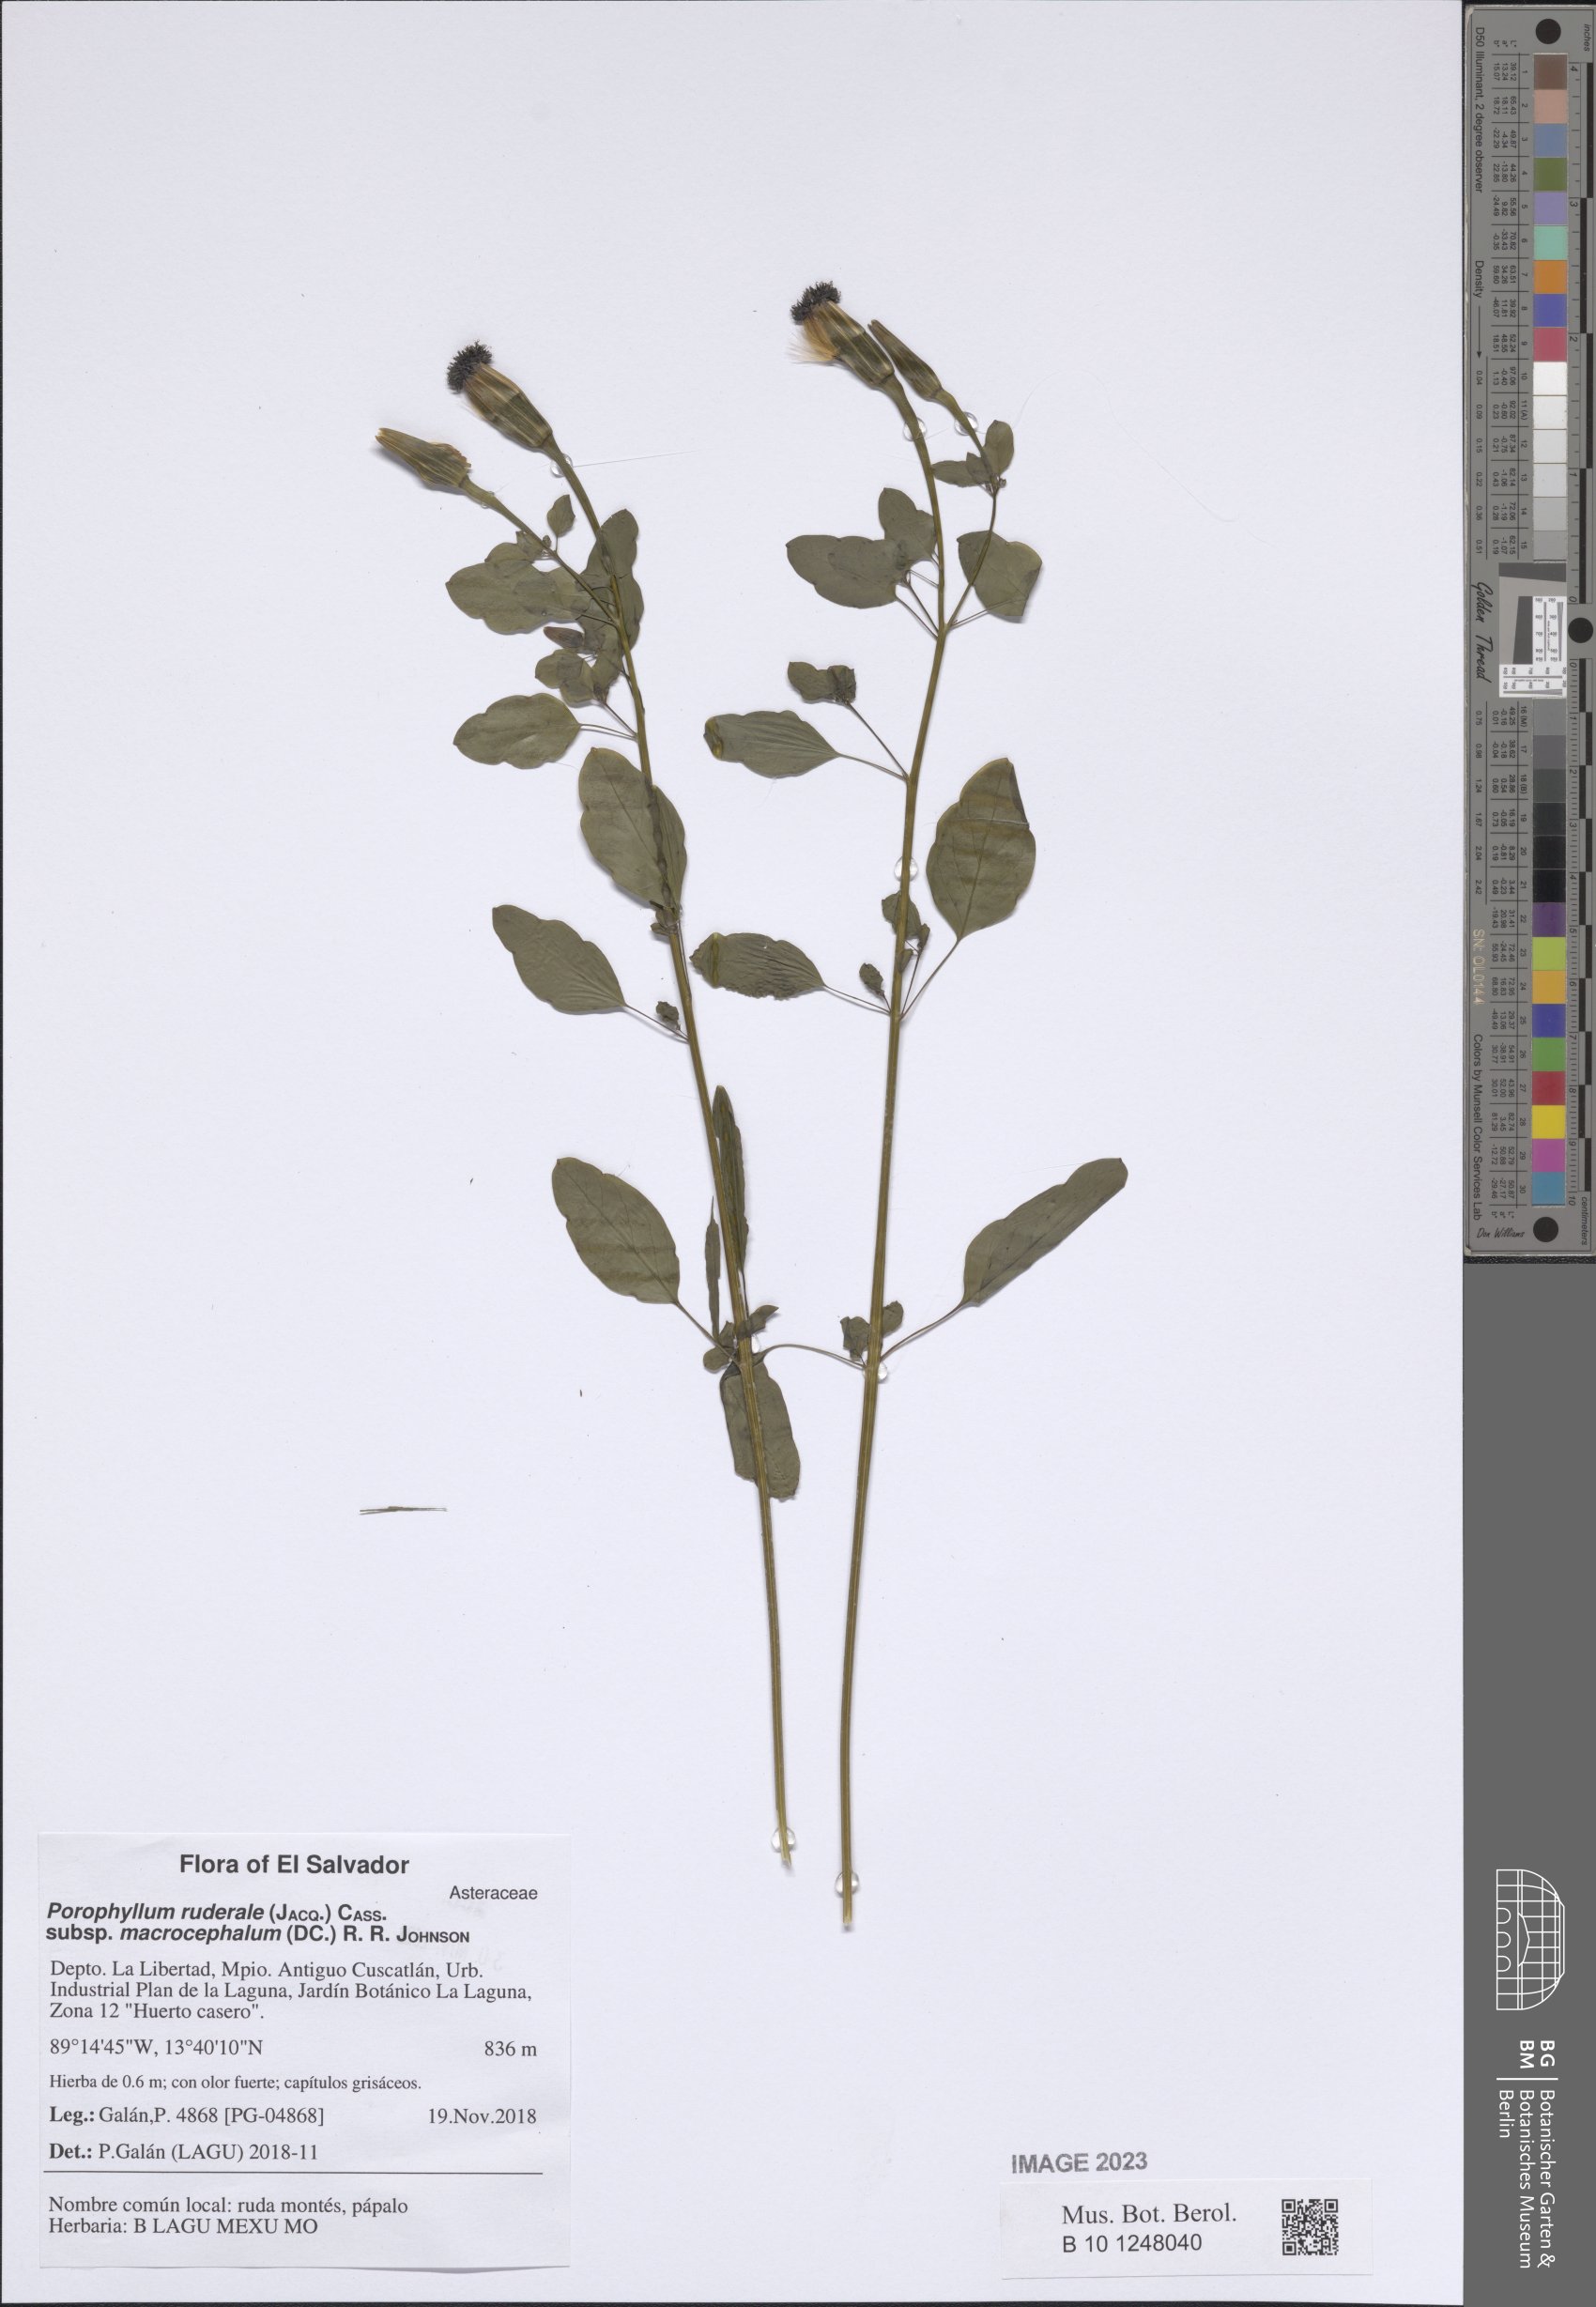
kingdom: Plantae
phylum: Tracheophyta
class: Magnoliopsida
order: Asterales
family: Asteraceae
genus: Porophyllum
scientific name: Porophyllum ruderale
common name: Yerba porosa
